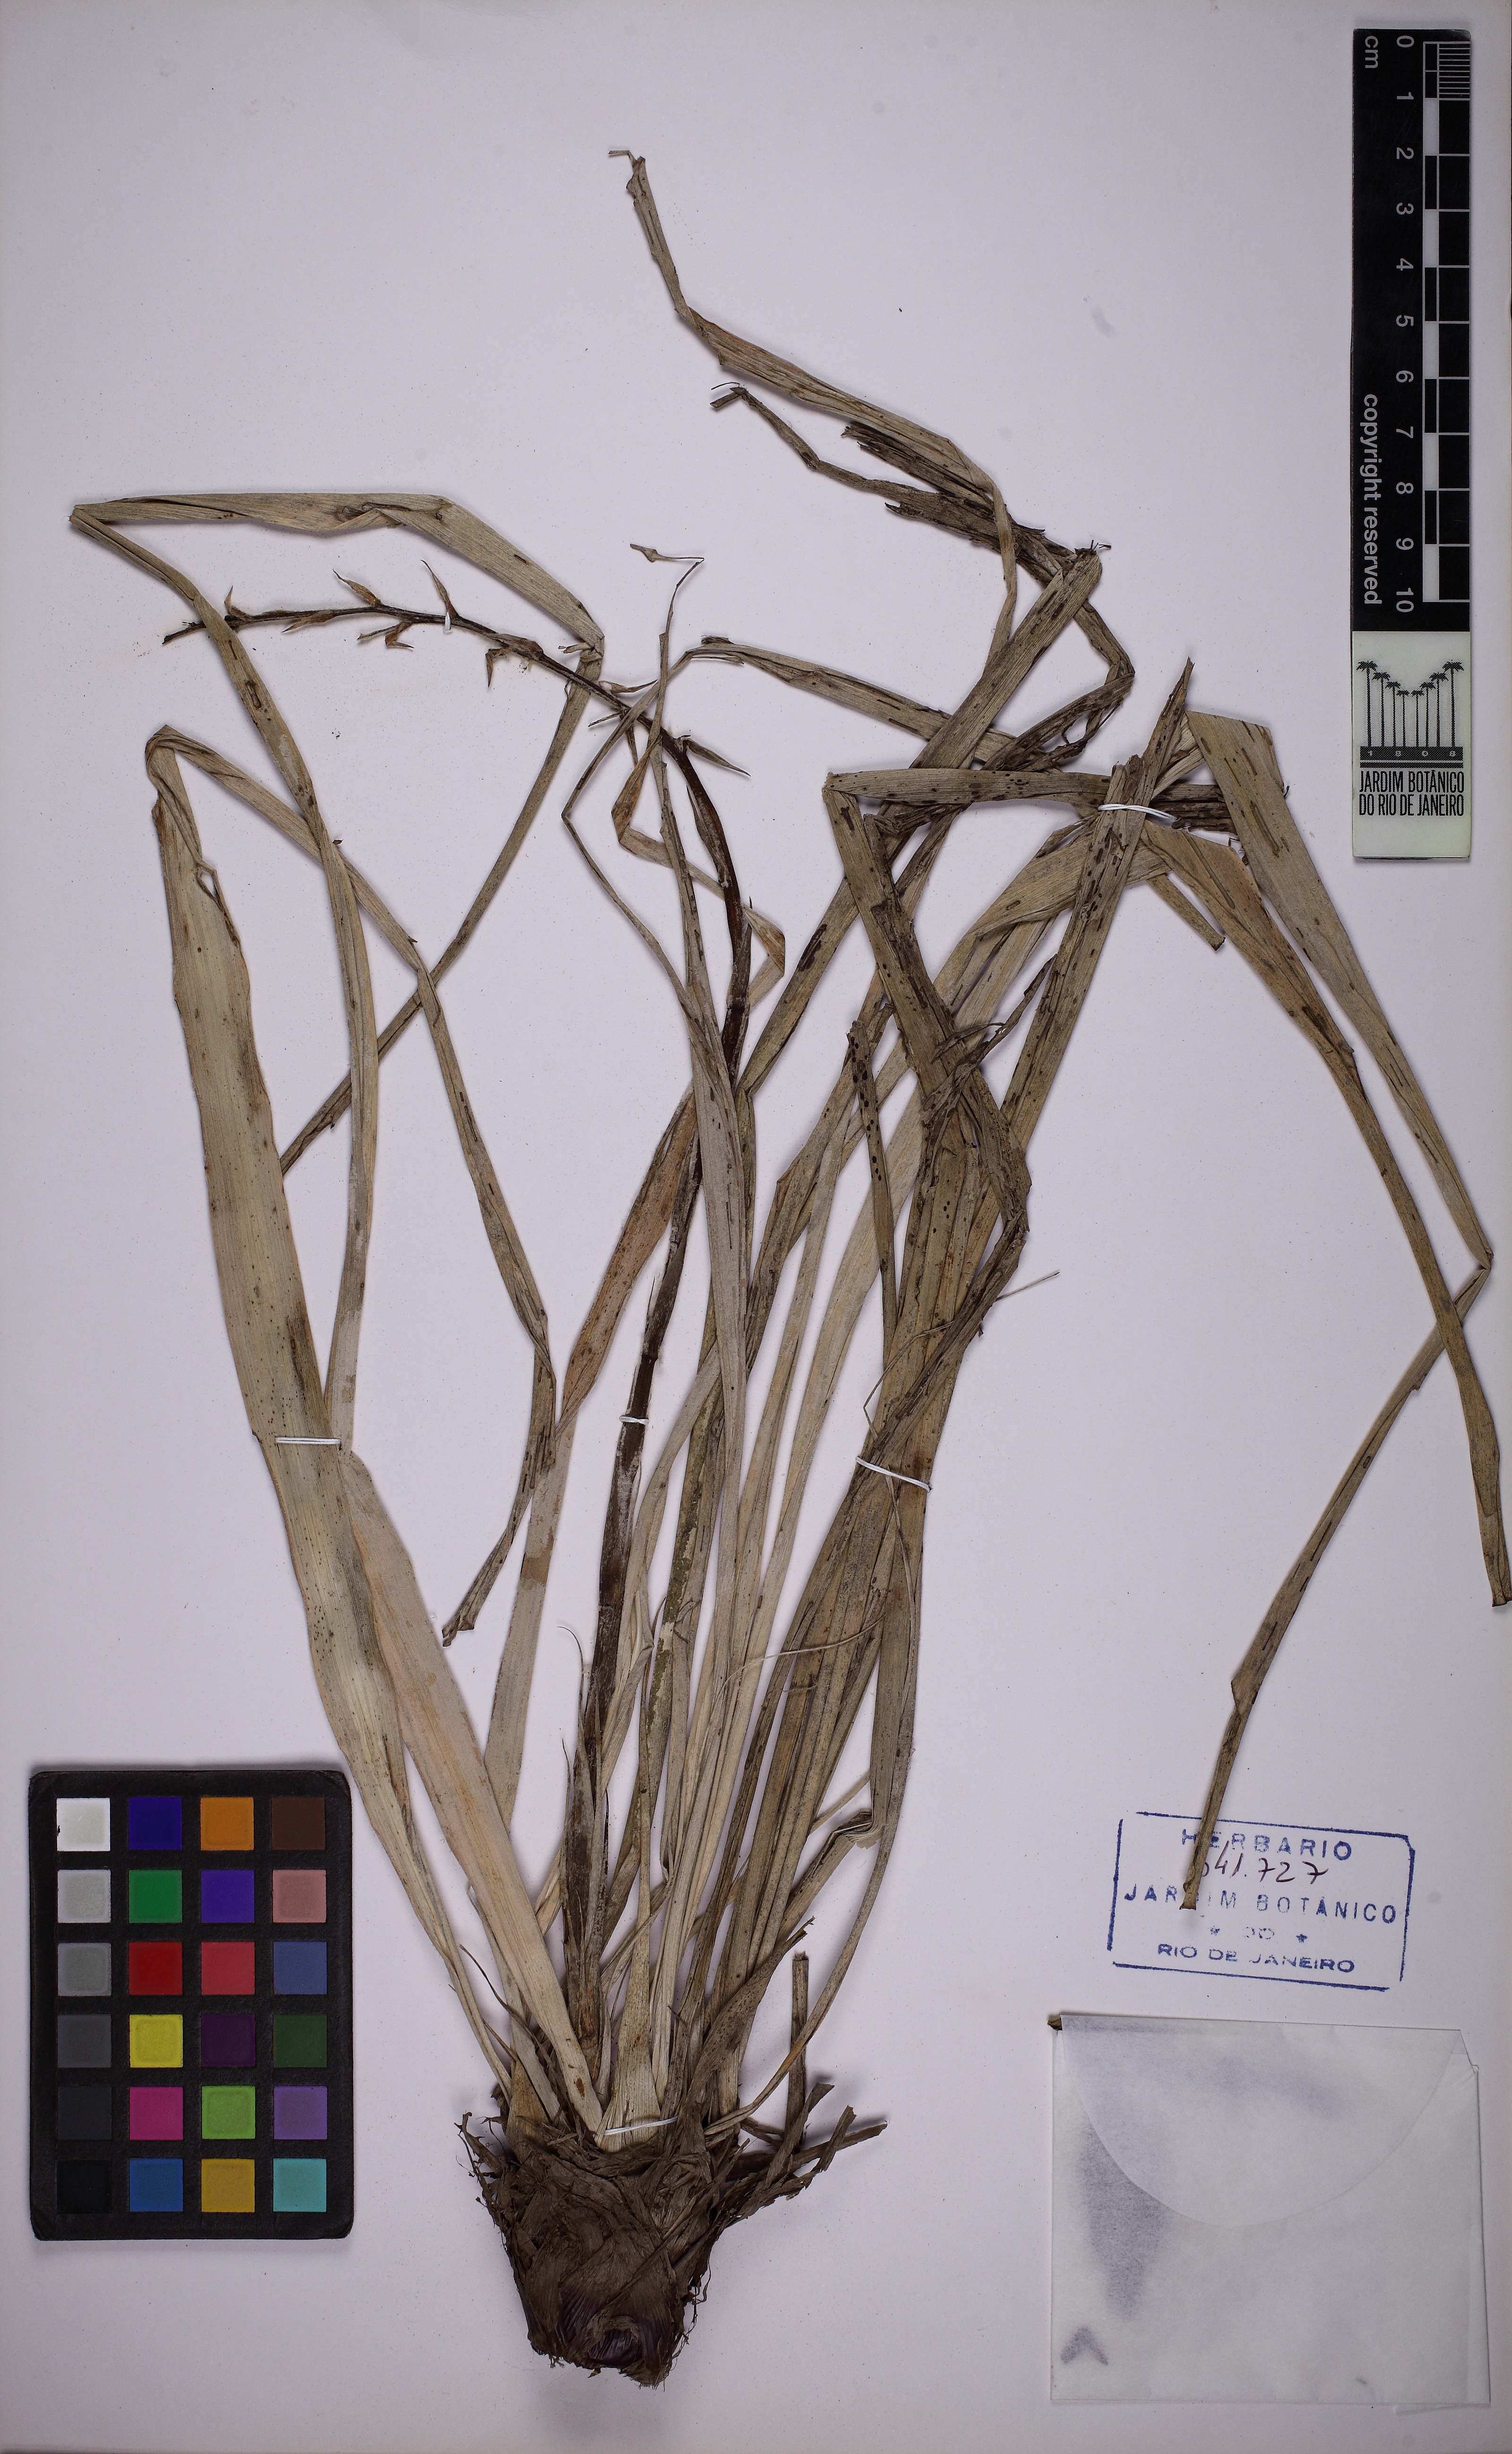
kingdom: Plantae
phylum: Tracheophyta
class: Liliopsida
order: Poales
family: Bromeliaceae
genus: Pitcairnia
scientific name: Pitcairnia limae
